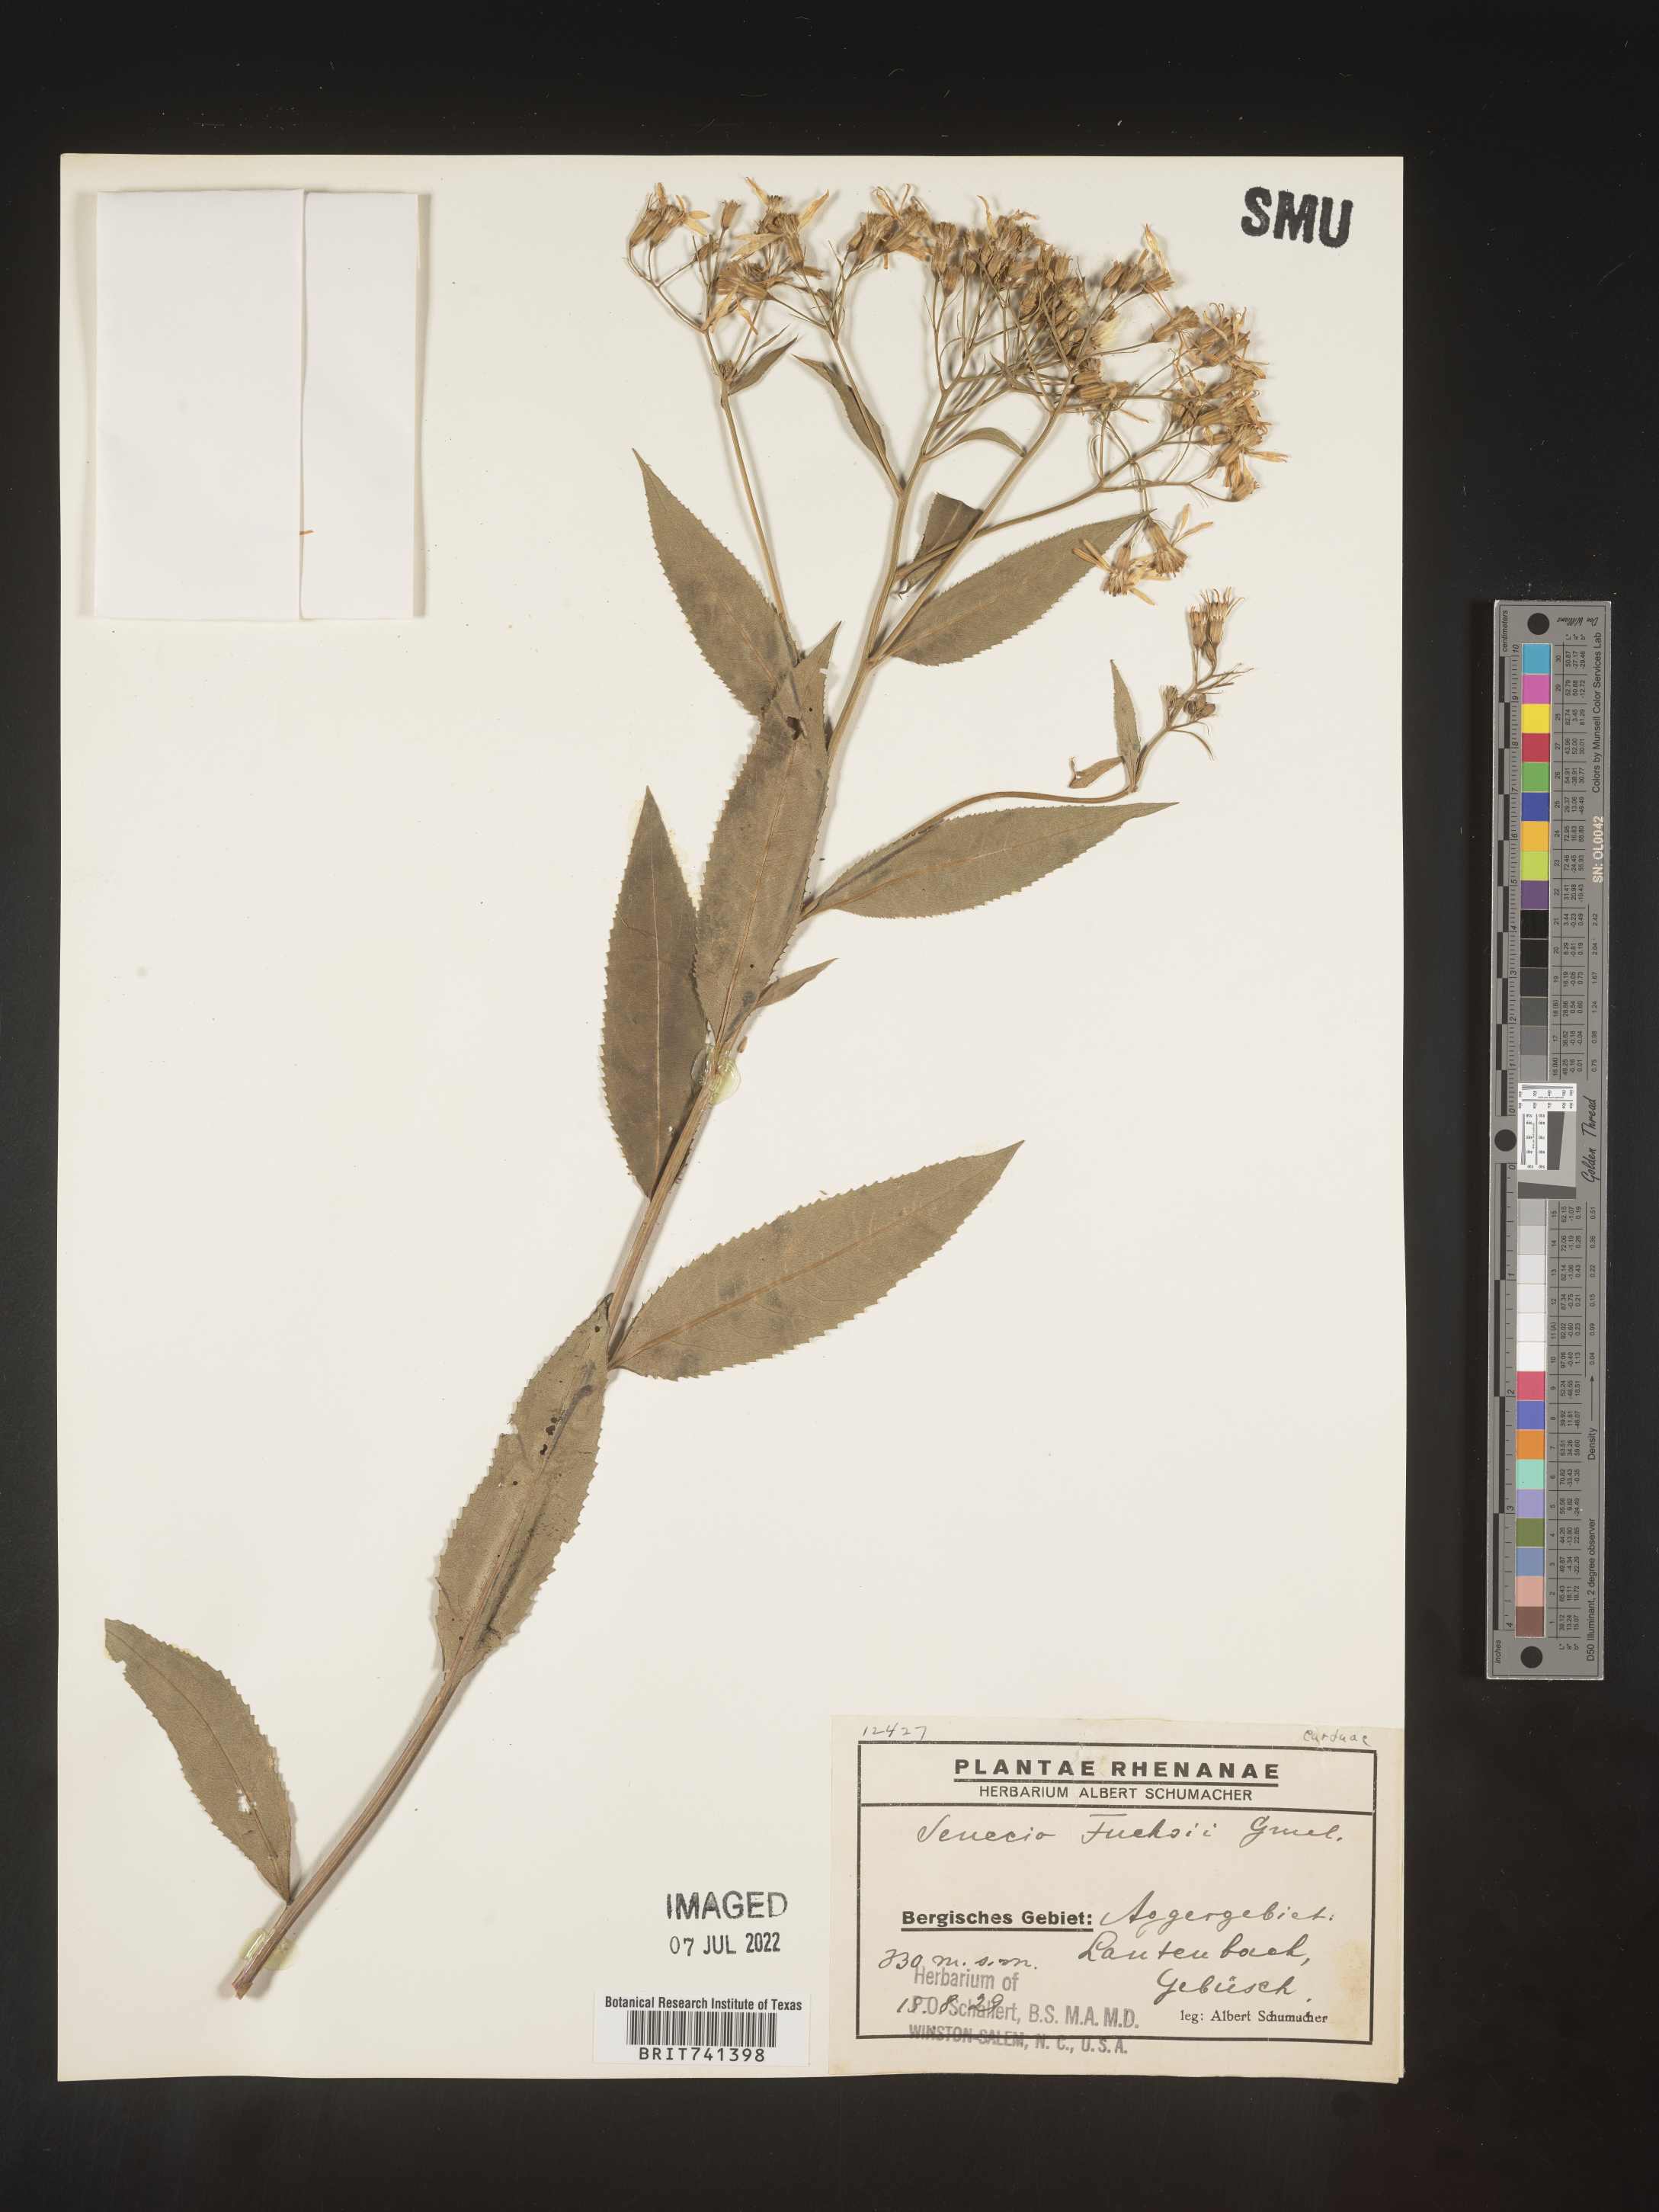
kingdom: Plantae
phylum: Tracheophyta
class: Magnoliopsida
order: Asterales
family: Asteraceae
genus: Senecio
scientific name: Senecio
